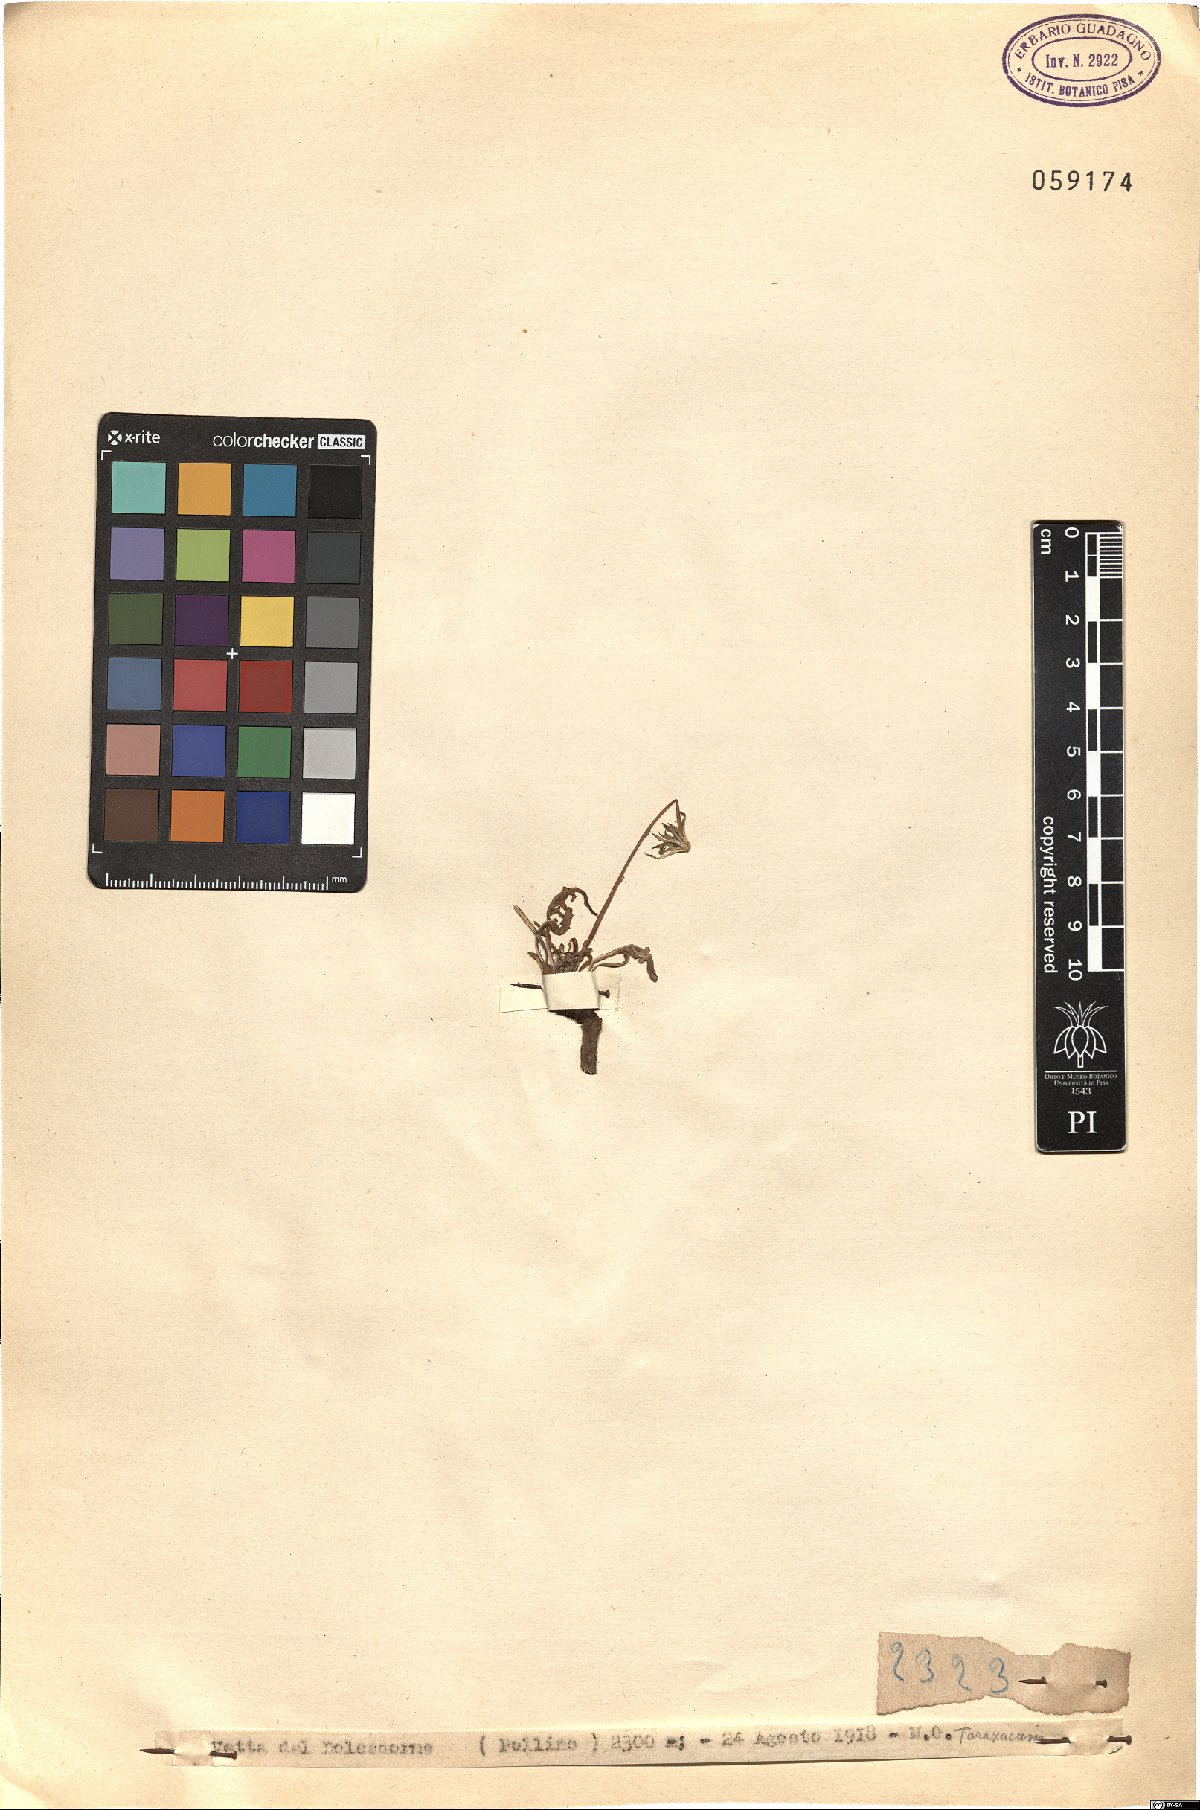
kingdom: Plantae
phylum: Tracheophyta
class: Magnoliopsida
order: Asterales
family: Asteraceae
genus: Taraxacum
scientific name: Taraxacum
